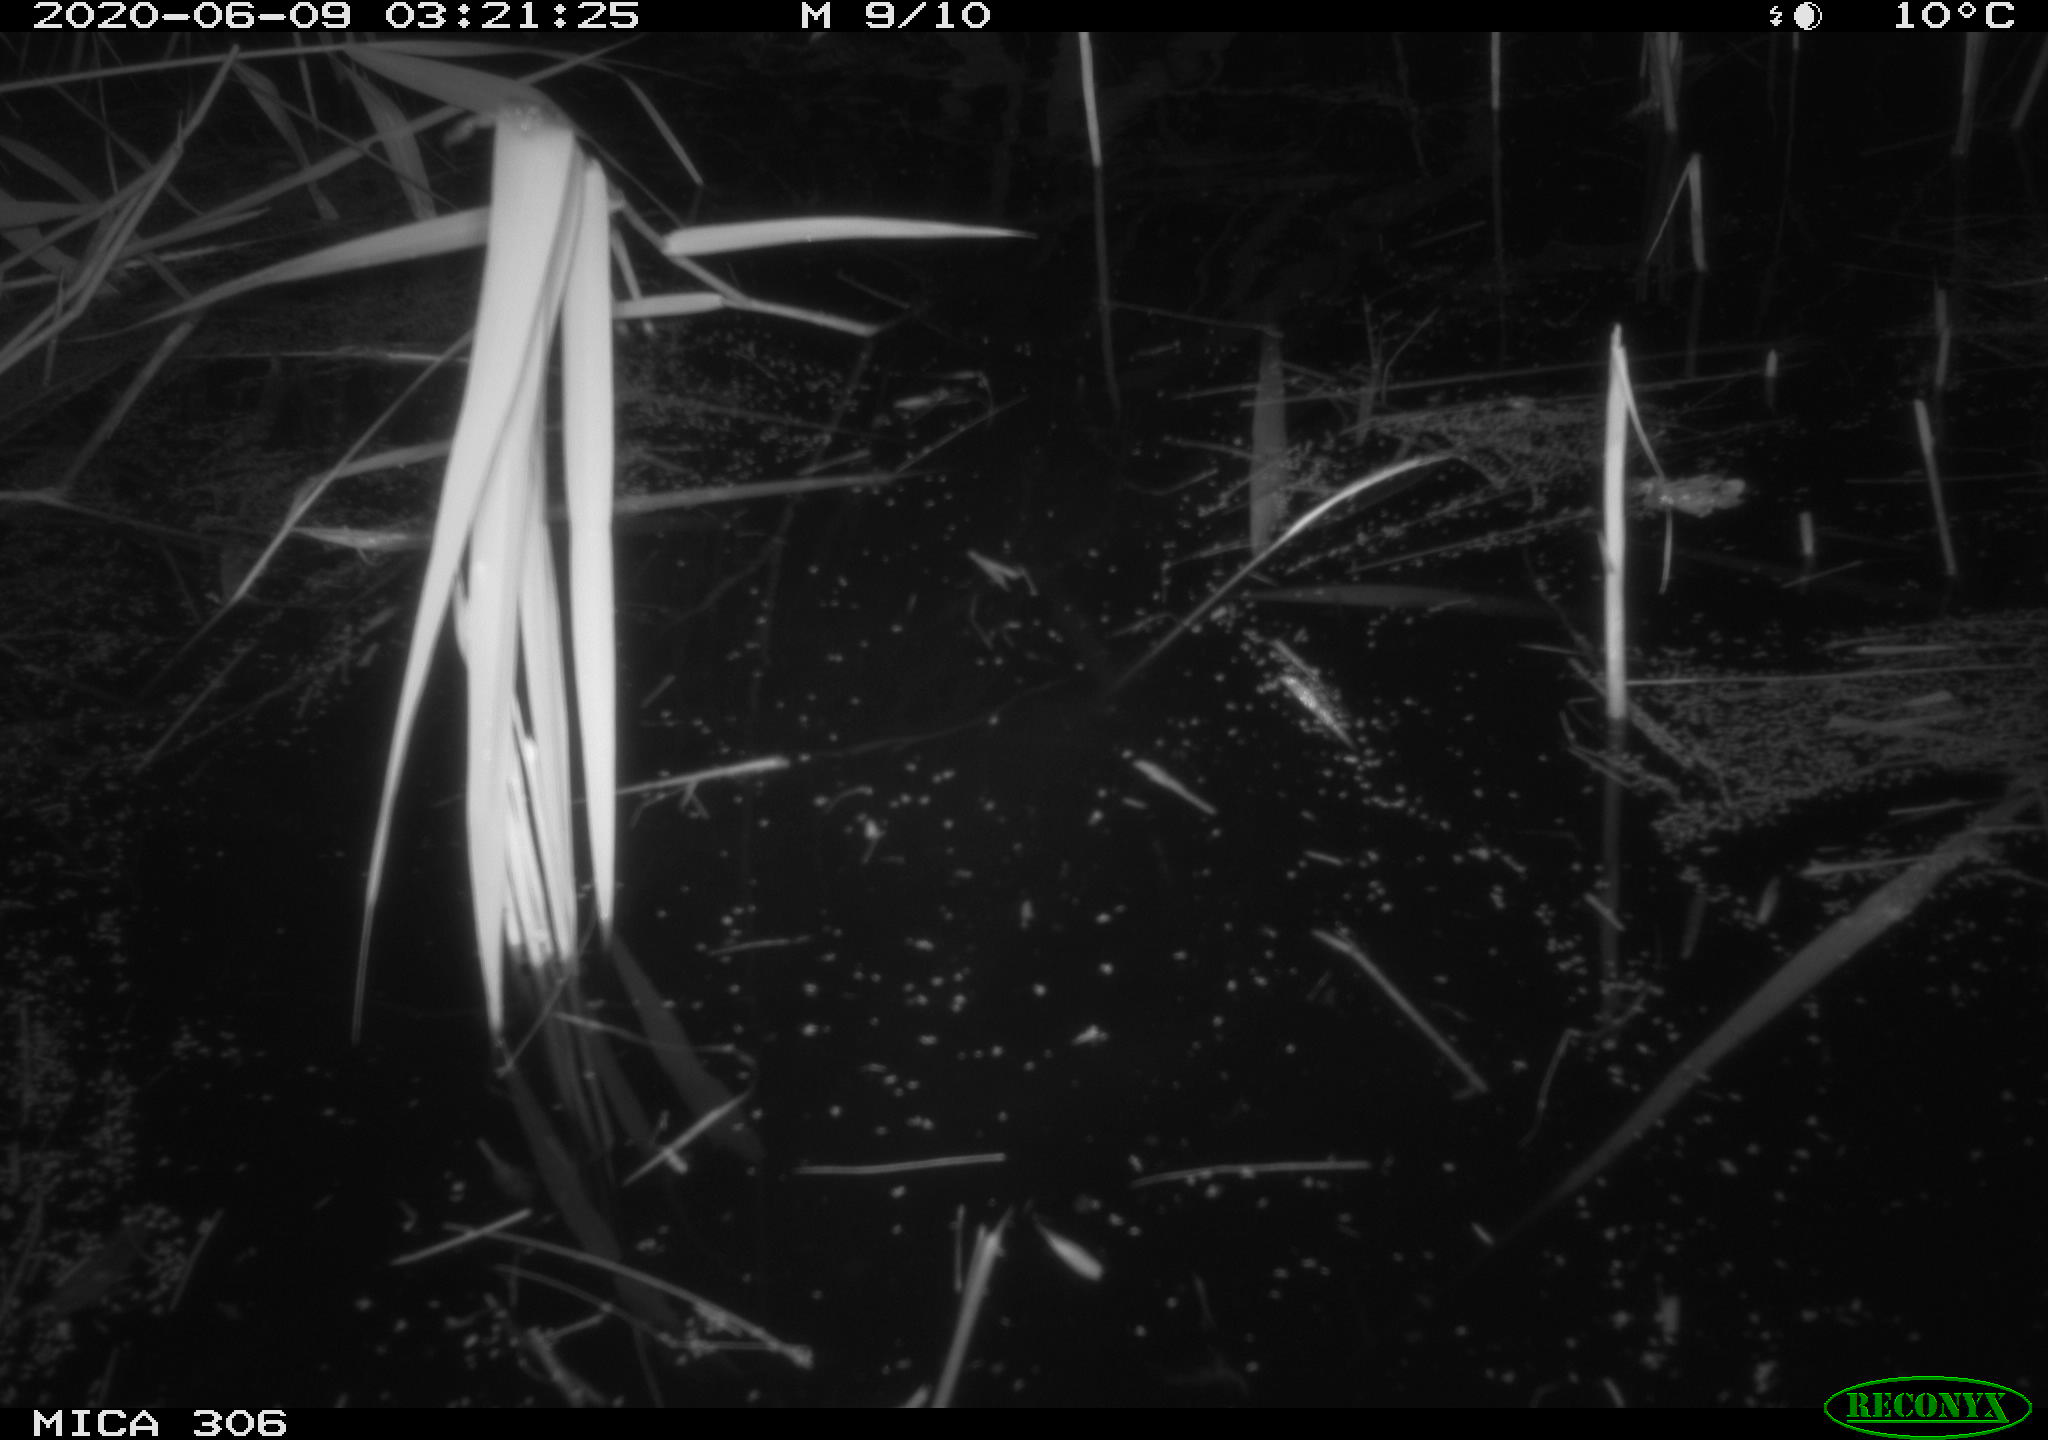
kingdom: Animalia
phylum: Chordata
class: Mammalia
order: Rodentia
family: Muridae
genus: Rattus
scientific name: Rattus norvegicus
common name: Brown rat
